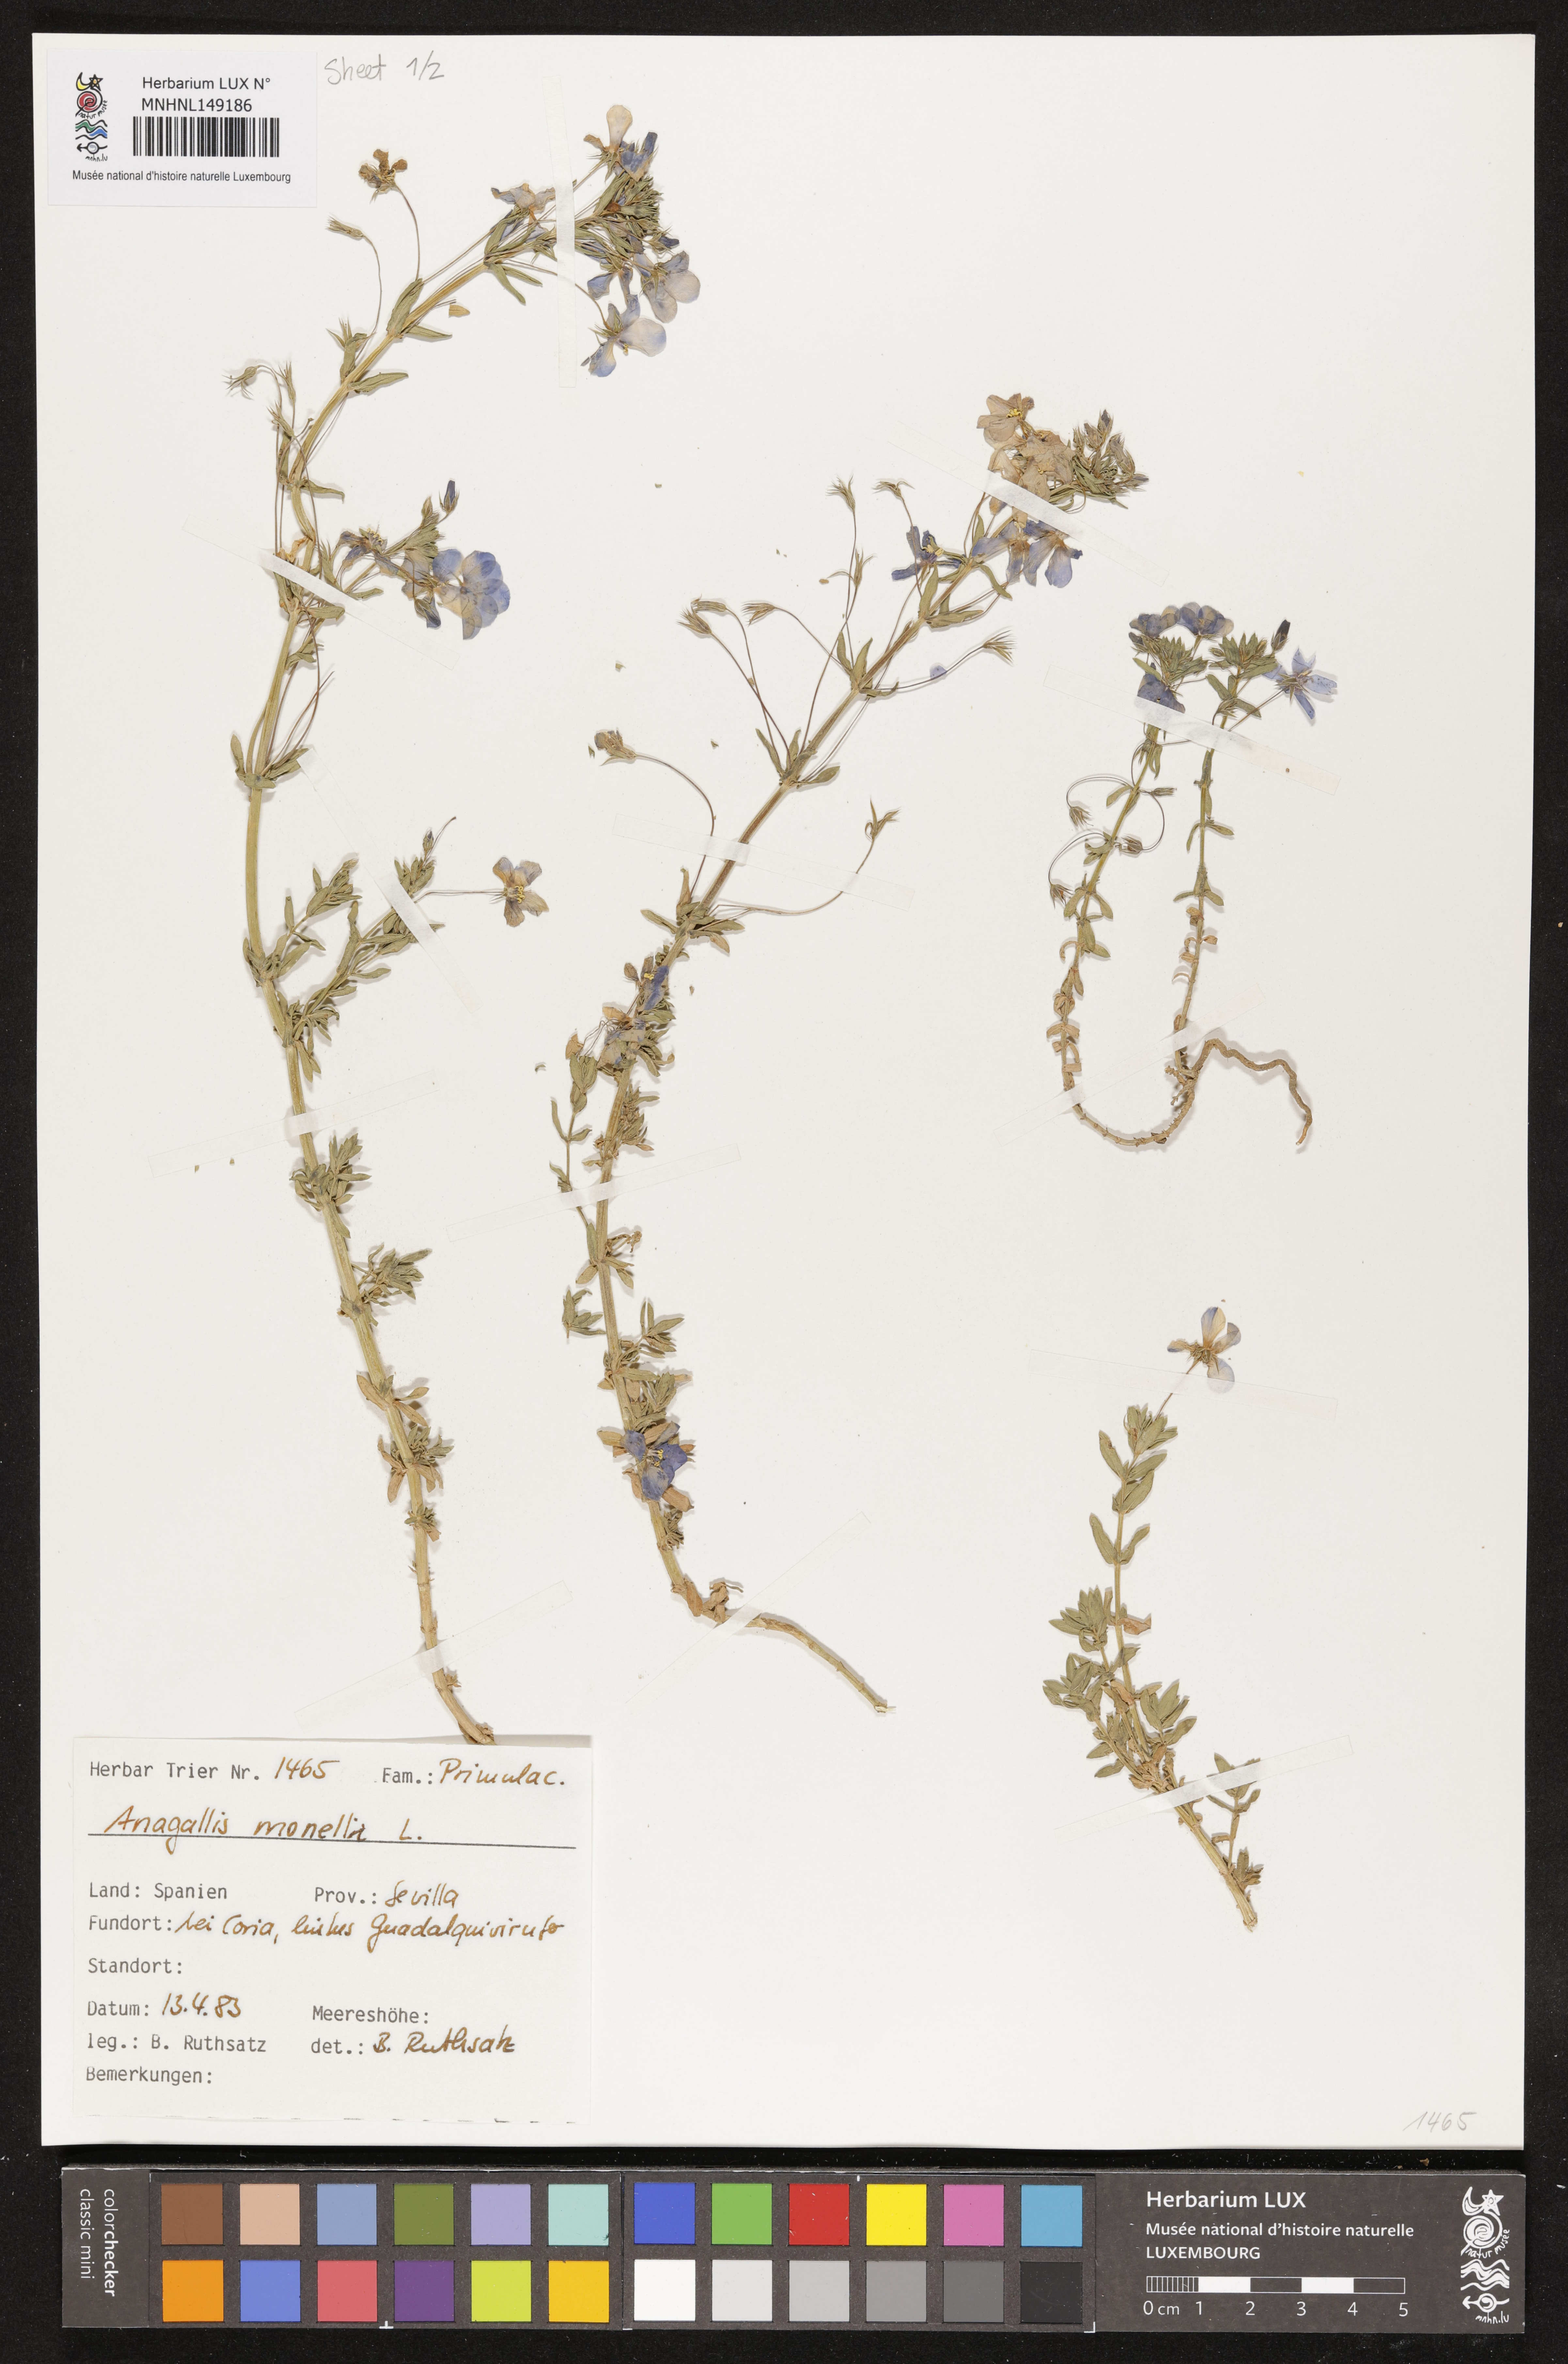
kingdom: Plantae
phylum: Tracheophyta
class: Magnoliopsida
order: Ericales
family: Primulaceae
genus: Lysimachia
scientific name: Lysimachia monelli
